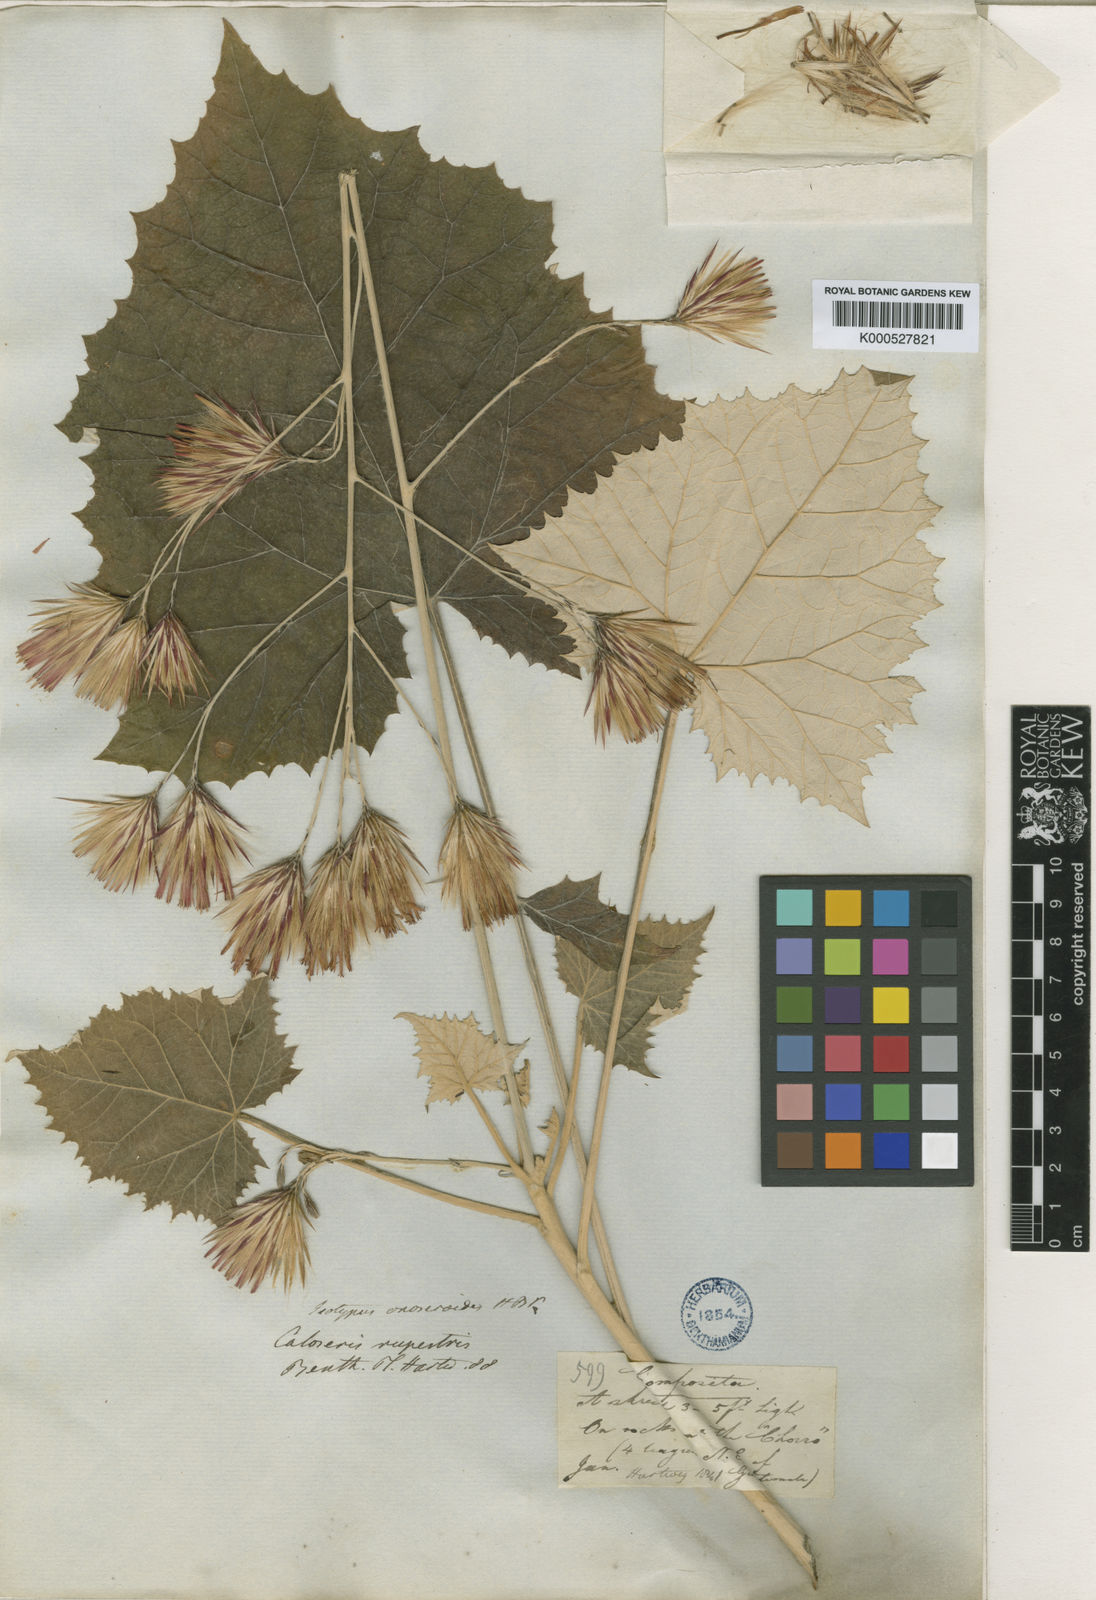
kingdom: Plantae
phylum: Tracheophyta
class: Magnoliopsida
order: Asterales
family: Asteraceae
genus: Onoseris
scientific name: Onoseris onoseroides
